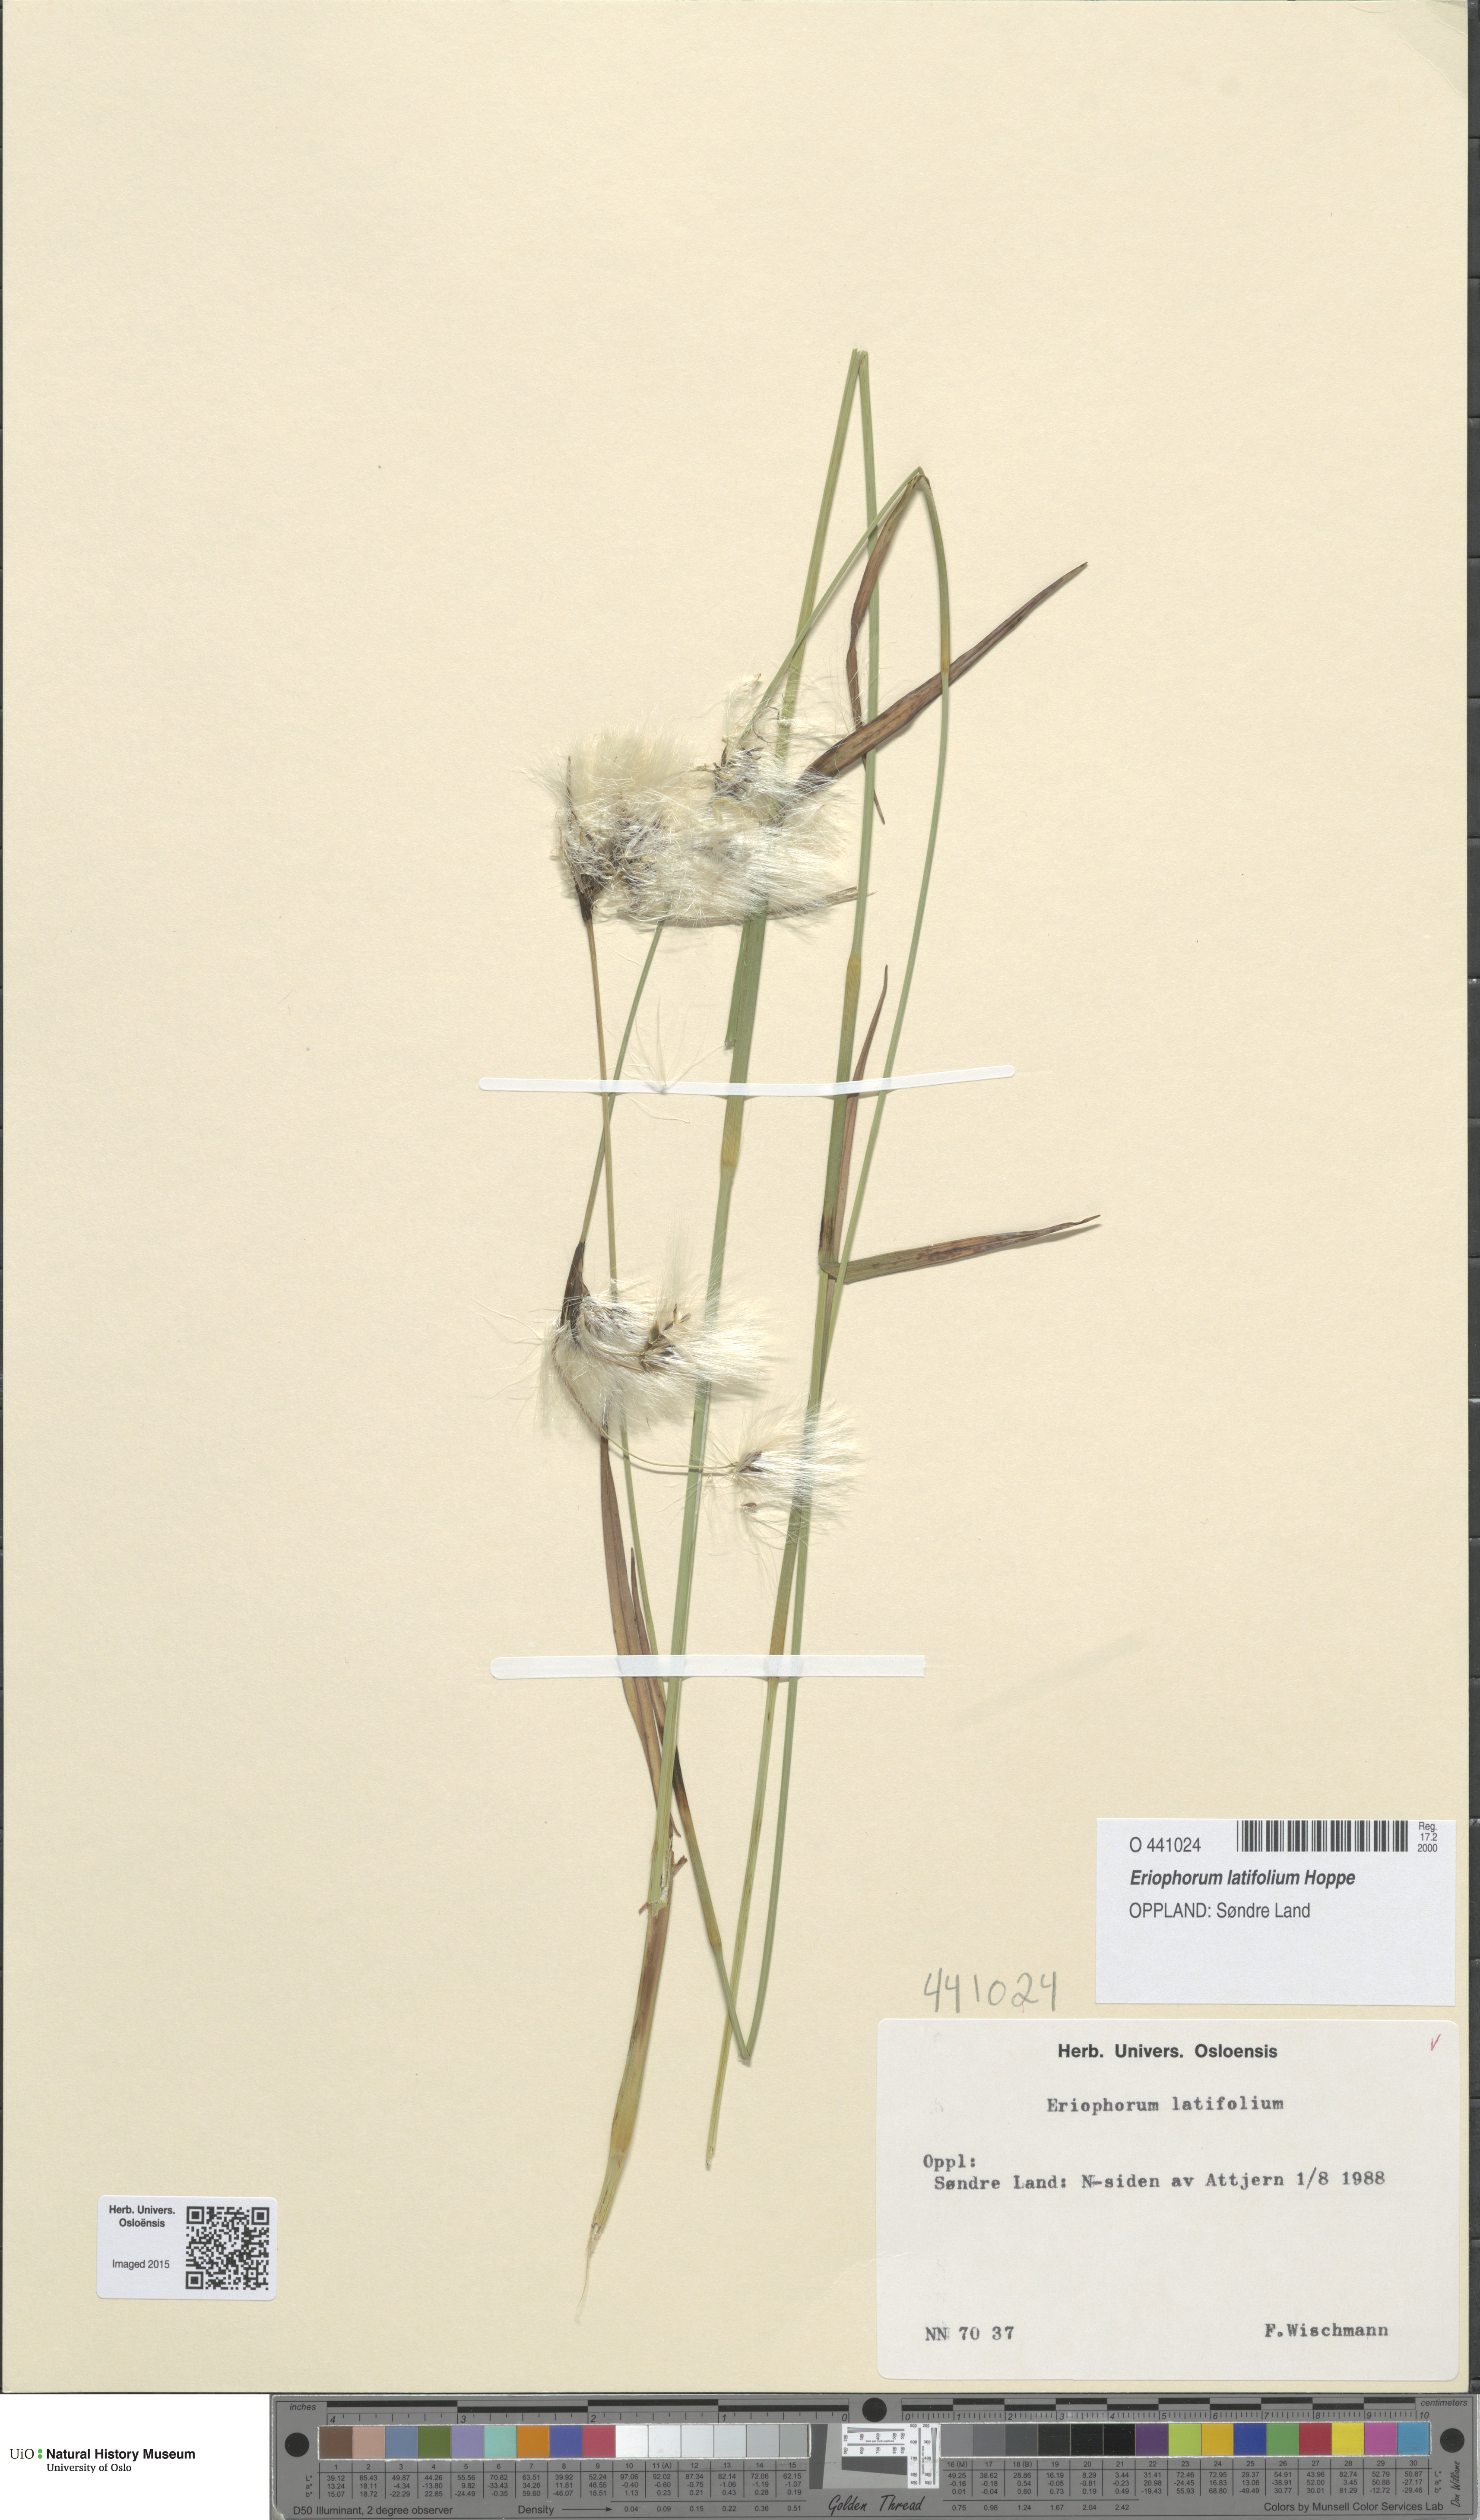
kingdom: Plantae
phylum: Tracheophyta
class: Liliopsida
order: Poales
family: Cyperaceae
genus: Eriophorum
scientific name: Eriophorum latifolium
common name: Broad-leaved cottongrass
